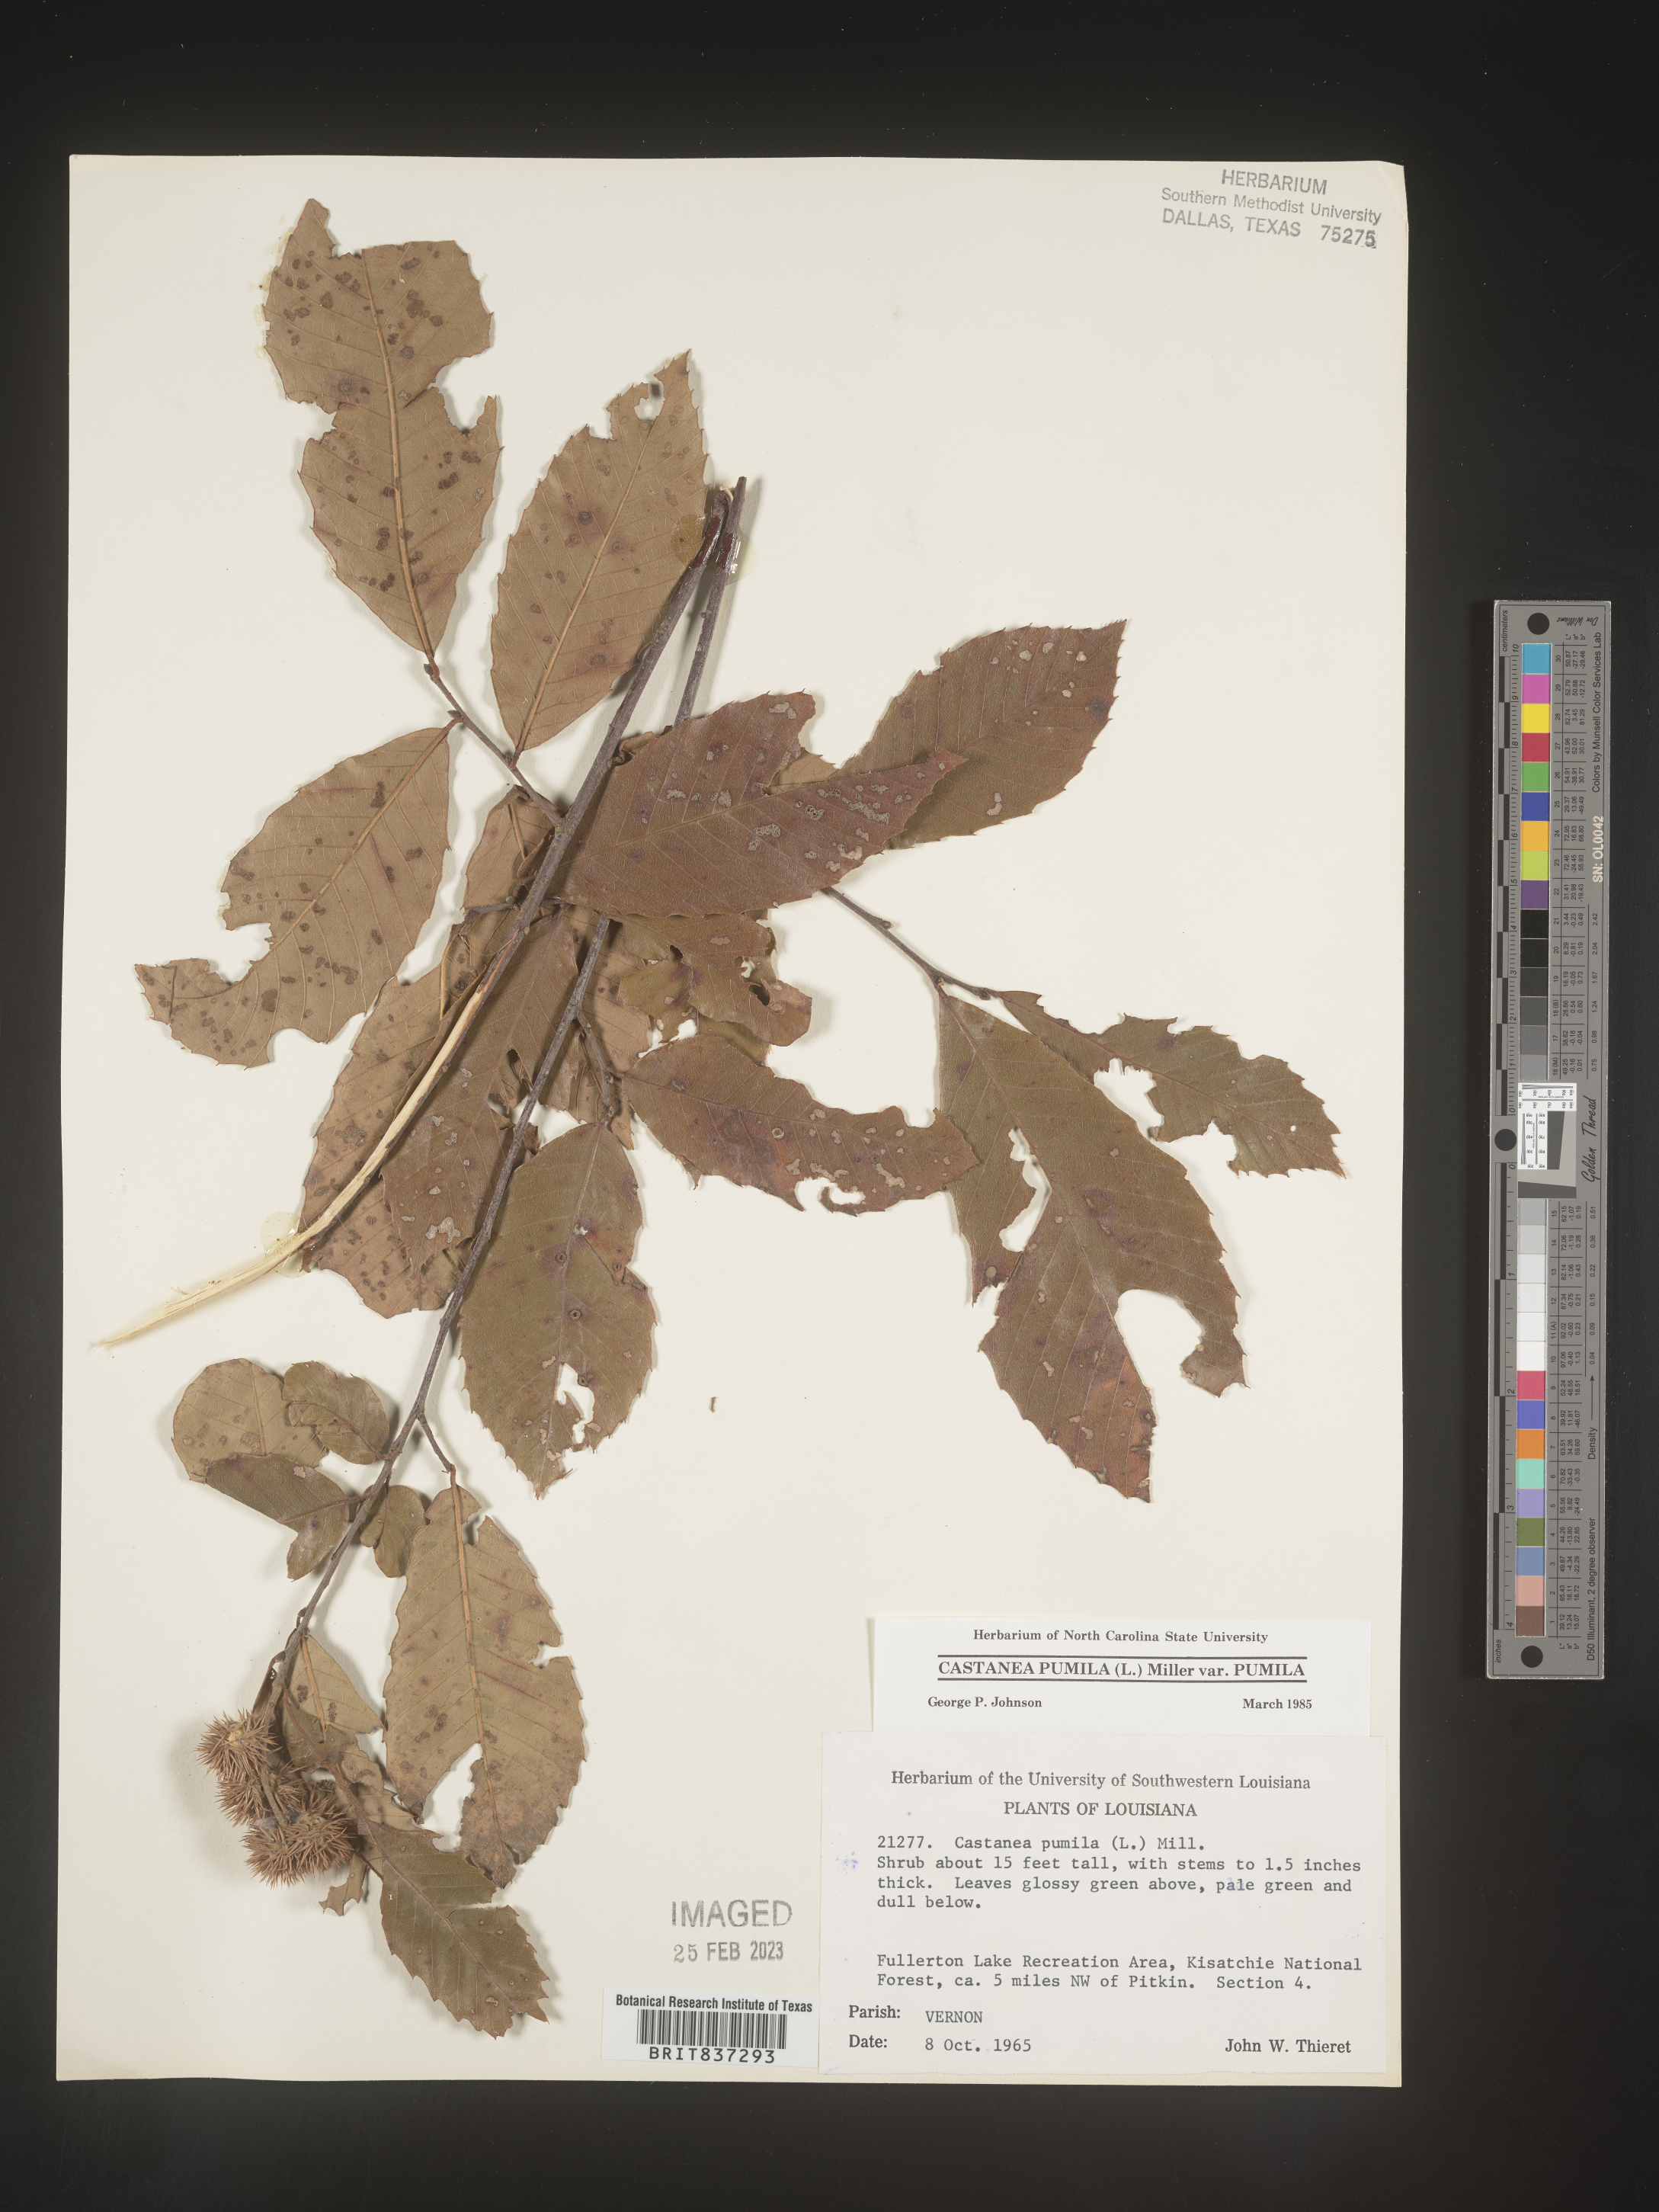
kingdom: Plantae
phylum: Tracheophyta
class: Magnoliopsida
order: Fagales
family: Fagaceae
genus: Castanea
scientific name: Castanea pumila
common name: Chinkapin
